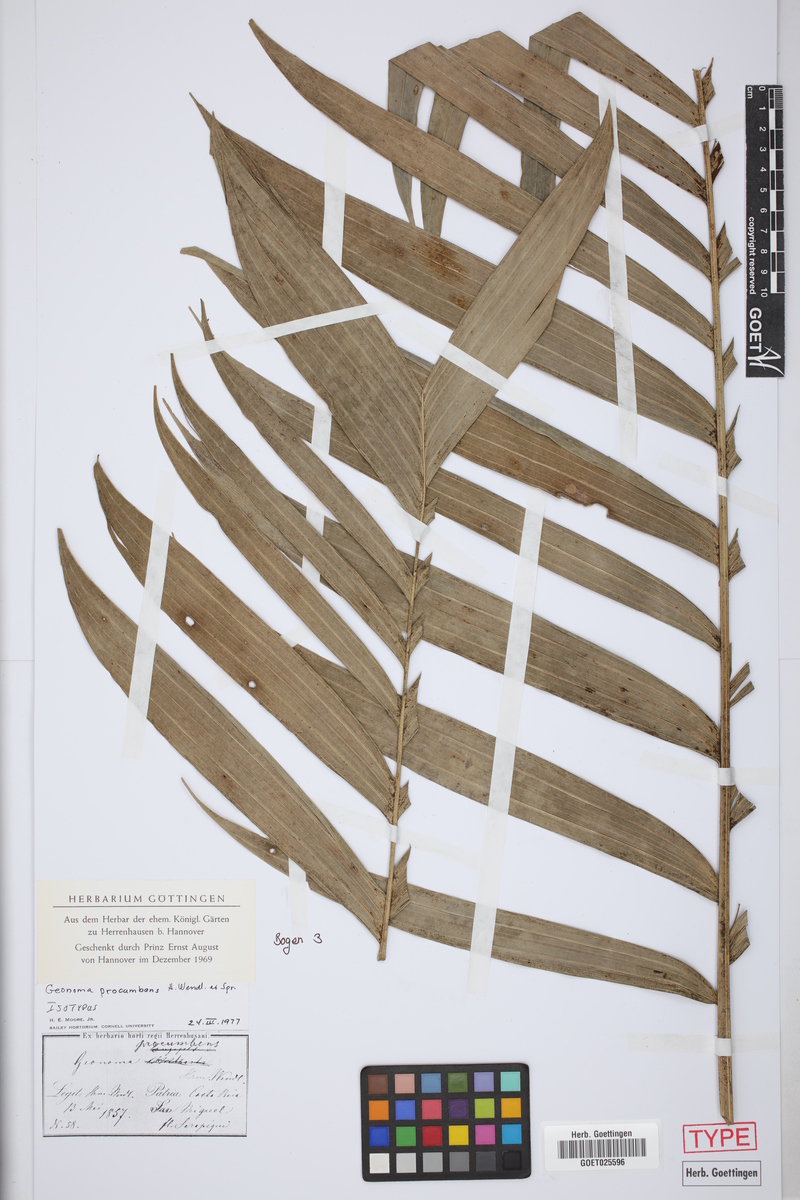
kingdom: Plantae
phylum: Tracheophyta
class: Liliopsida
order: Arecales
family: Arecaceae
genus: Geonoma
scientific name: Geonoma cuneata
